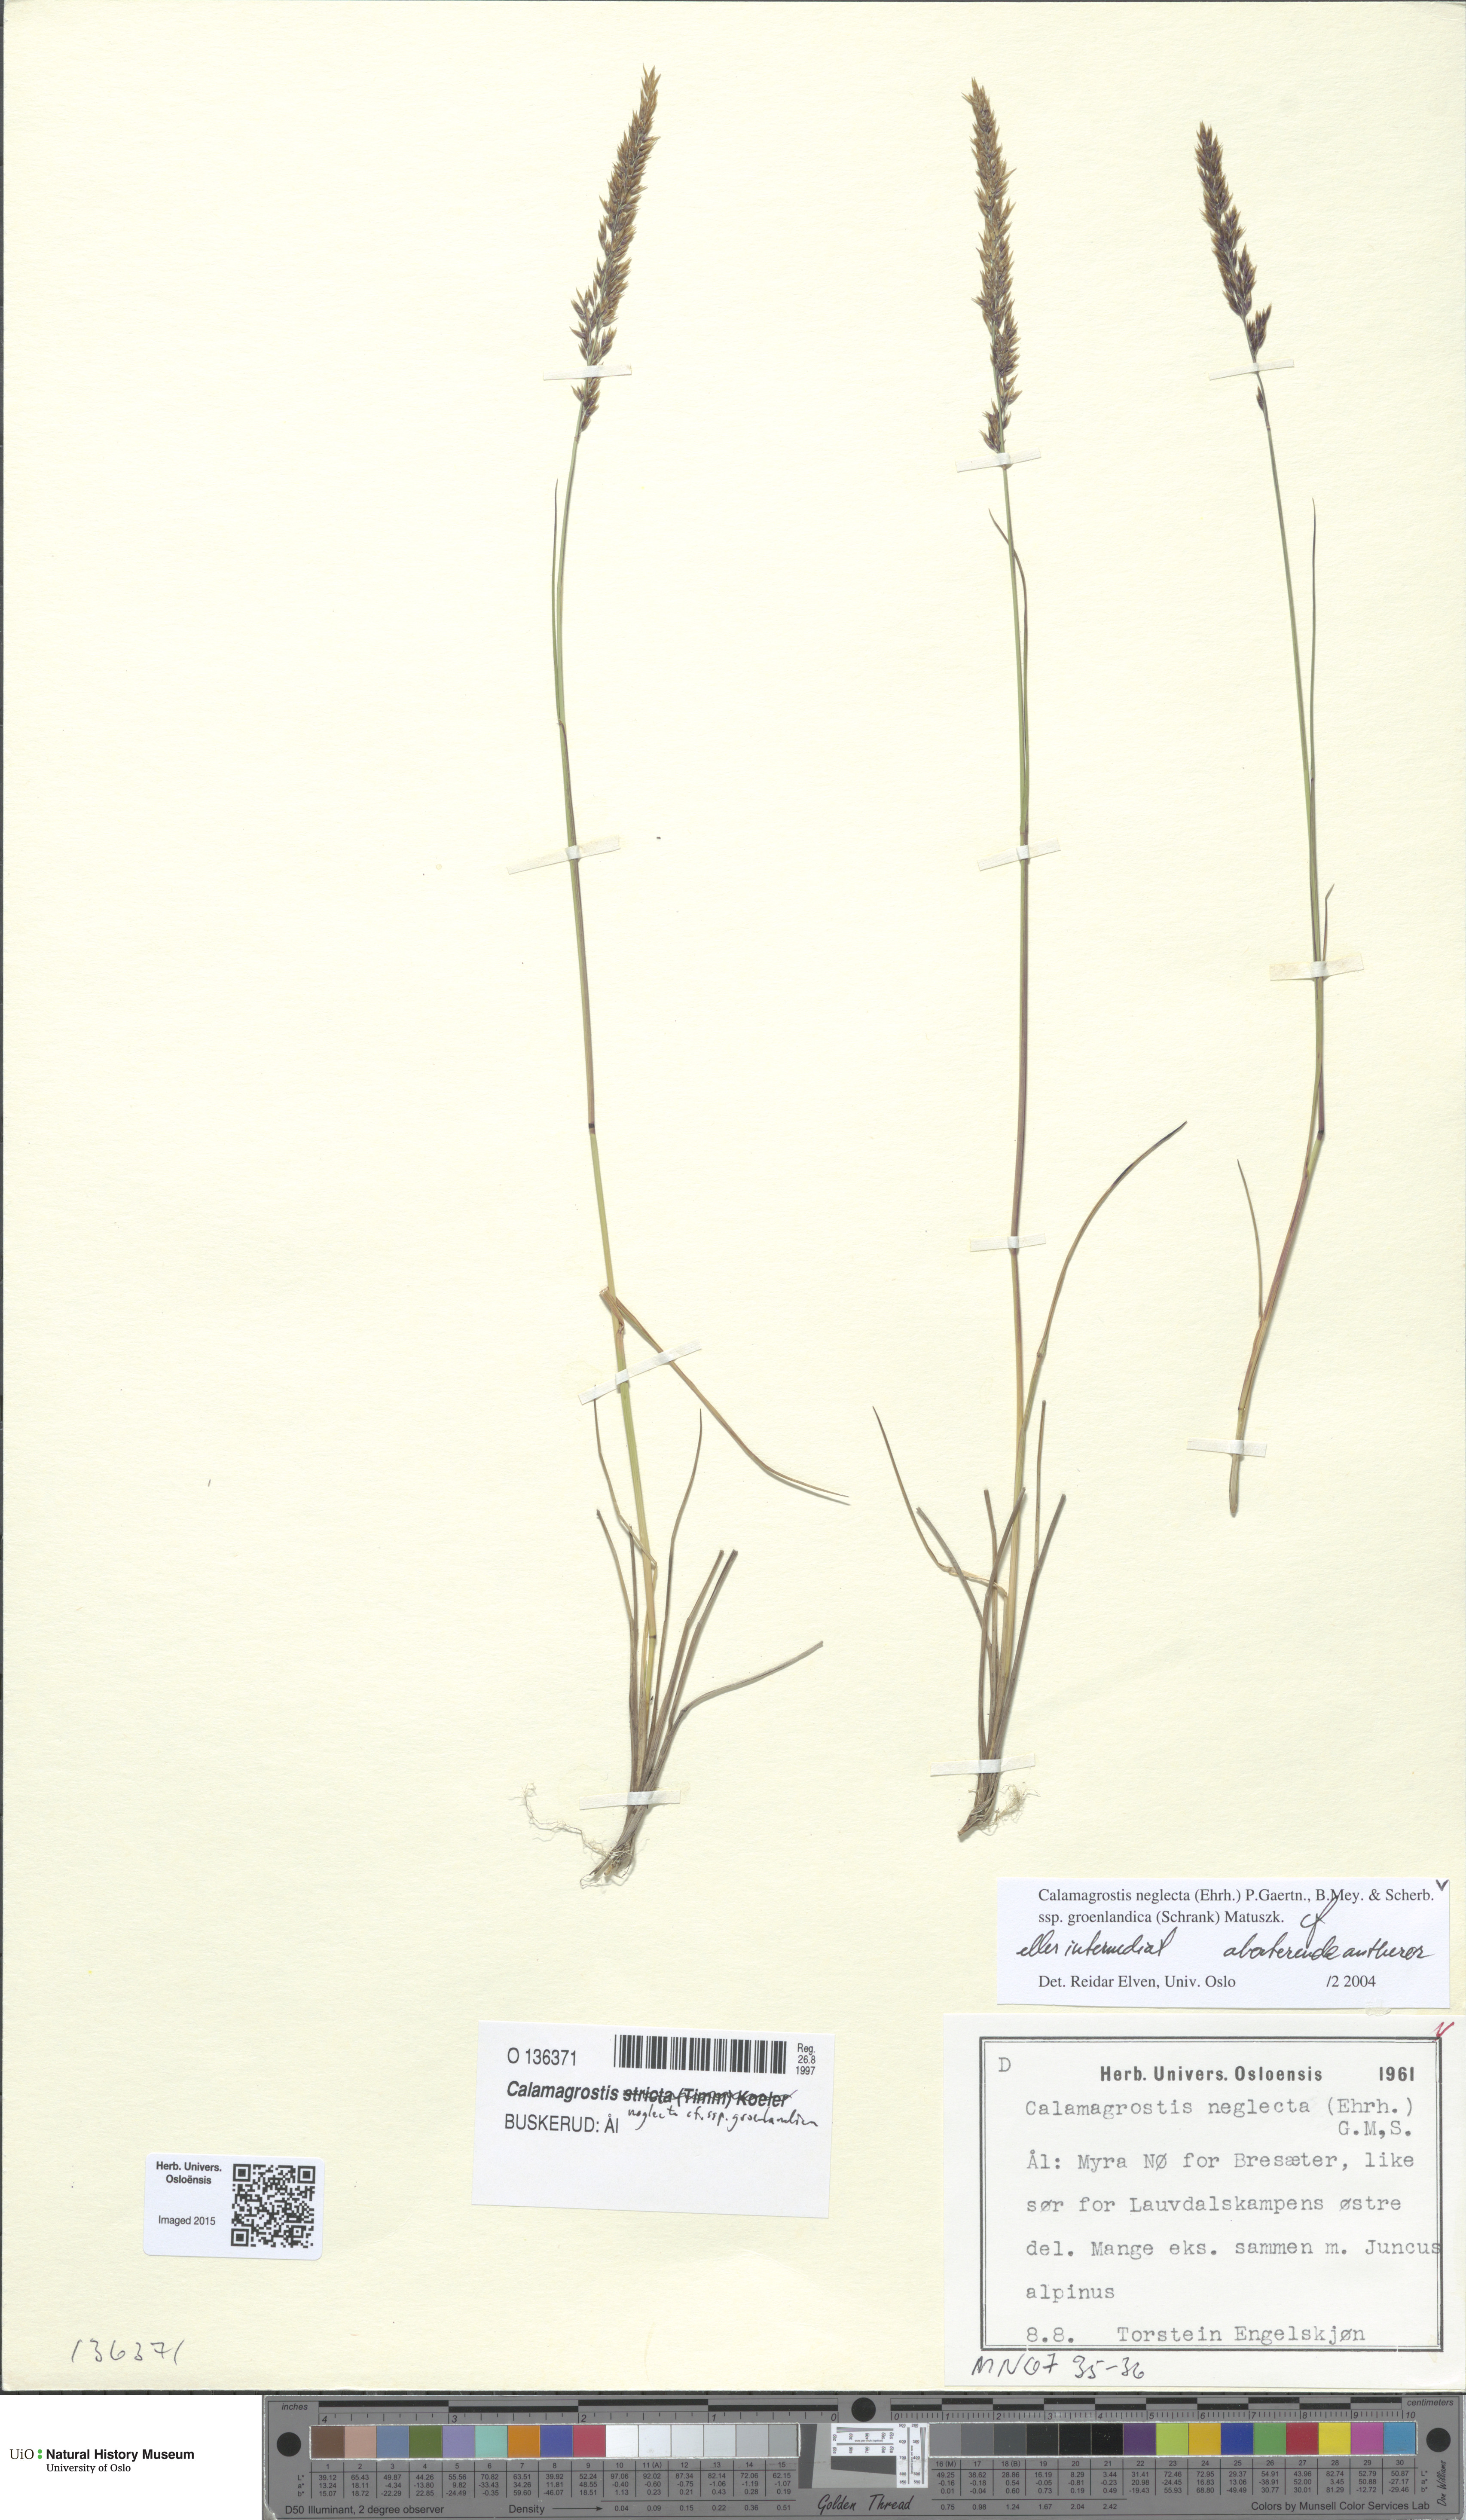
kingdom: Plantae
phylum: Tracheophyta
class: Liliopsida
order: Poales
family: Poaceae
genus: Calamagrostis
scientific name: Calamagrostis stricta
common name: Narrow small-reed
